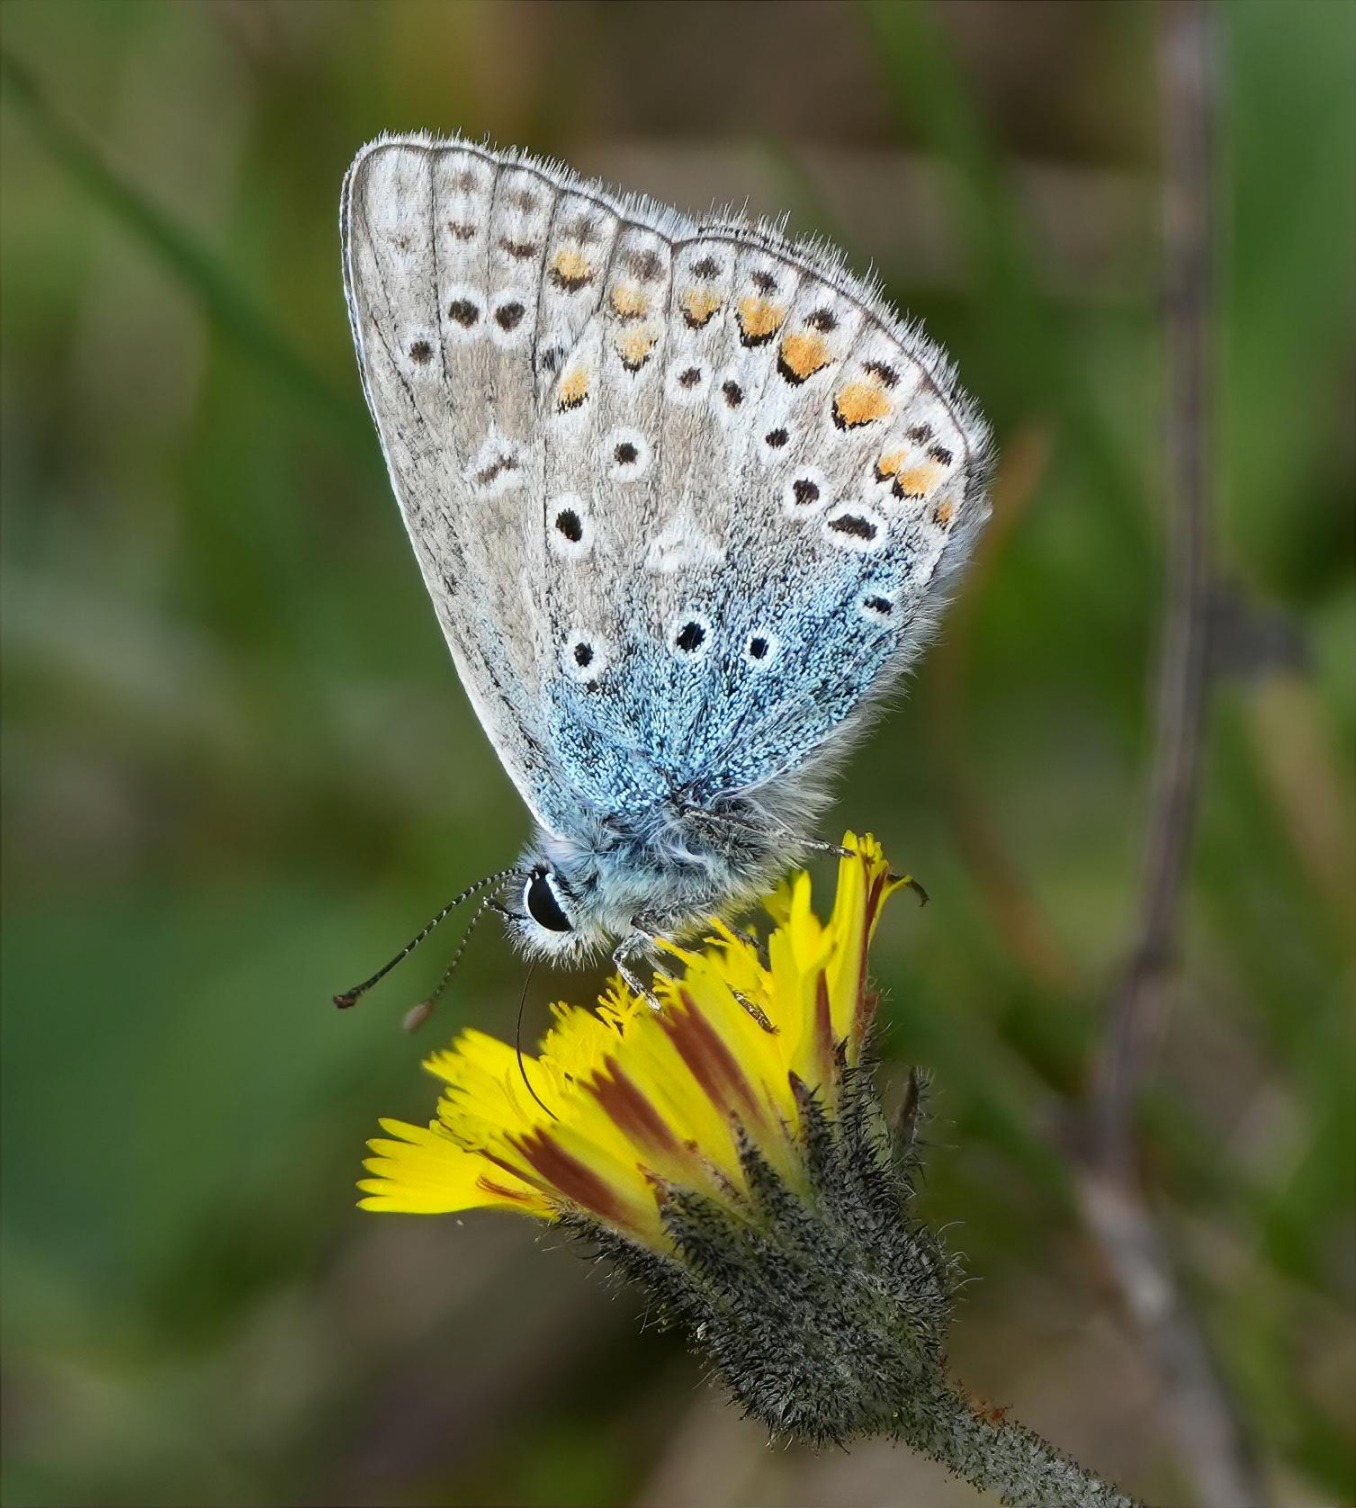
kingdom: Animalia
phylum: Arthropoda
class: Insecta
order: Lepidoptera
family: Lycaenidae
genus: Polyommatus
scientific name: Polyommatus icarus
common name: Almindelig blåfugl
